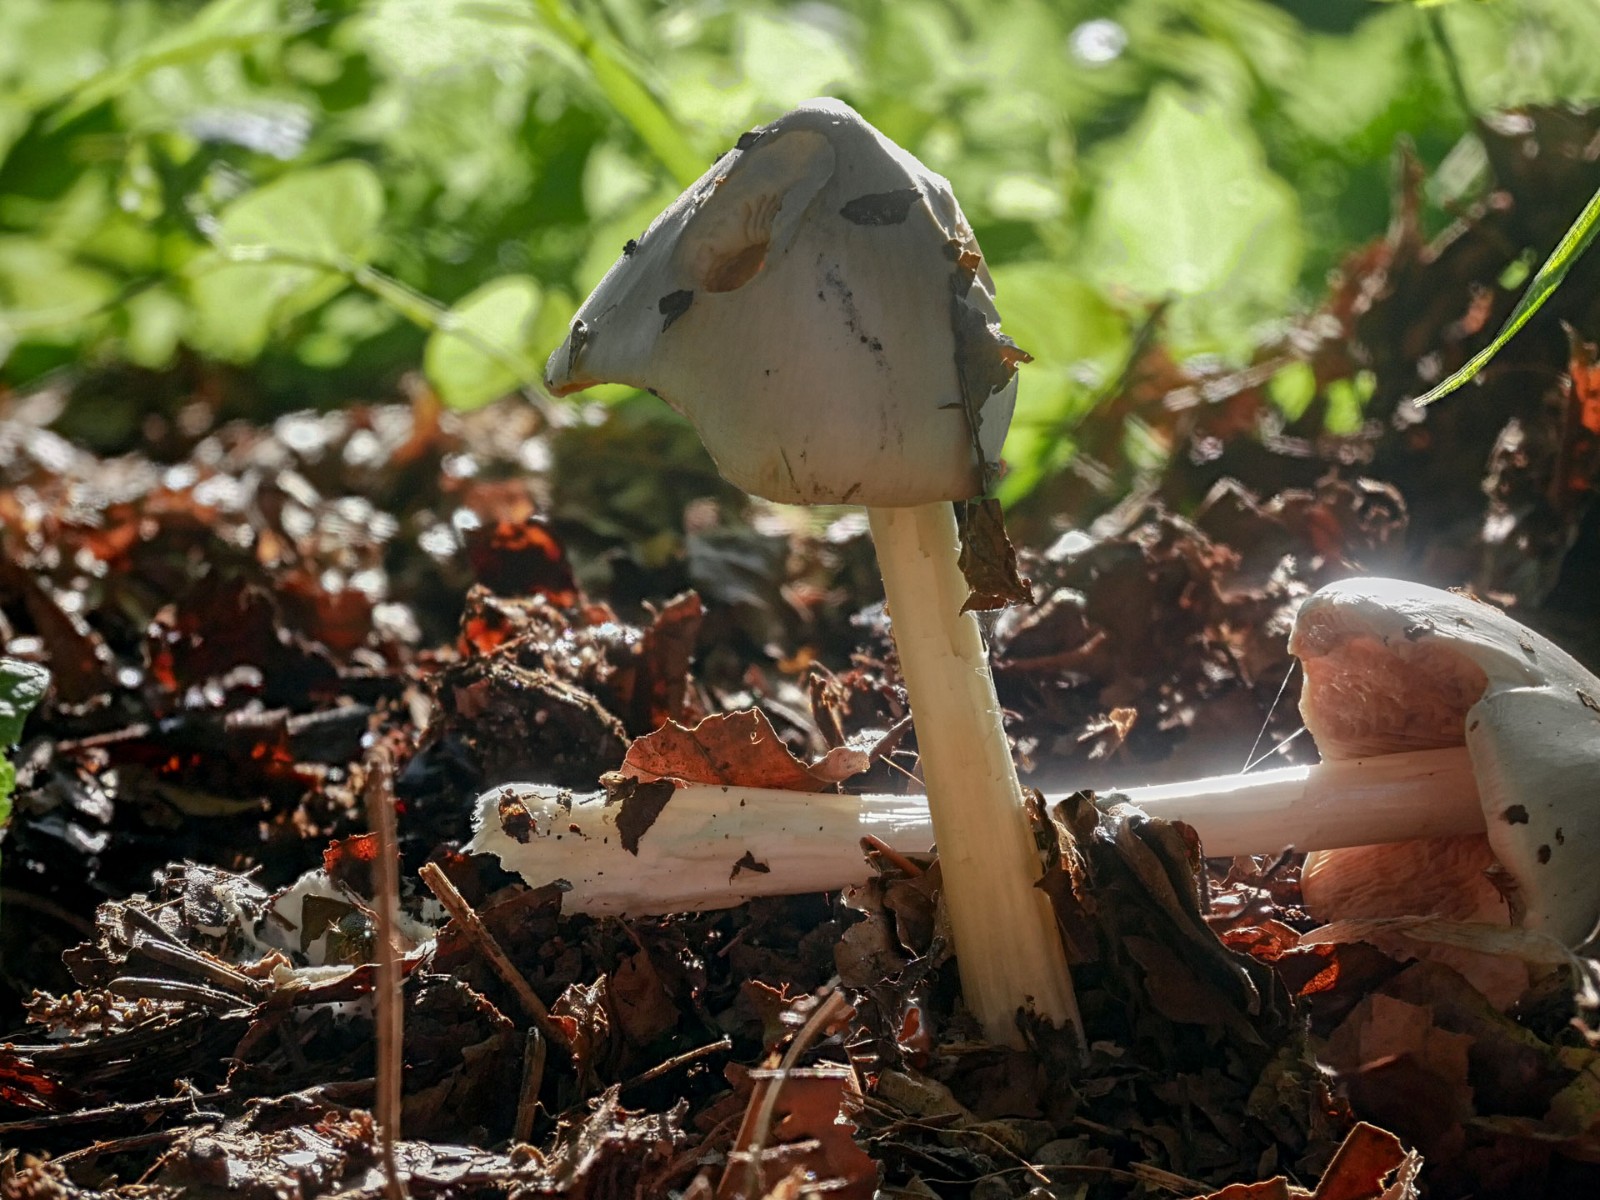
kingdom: Fungi
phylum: Basidiomycota
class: Agaricomycetes
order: Agaricales
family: Pluteaceae
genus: Volvopluteus
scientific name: Volvopluteus gloiocephalus
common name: høj posesvamp
